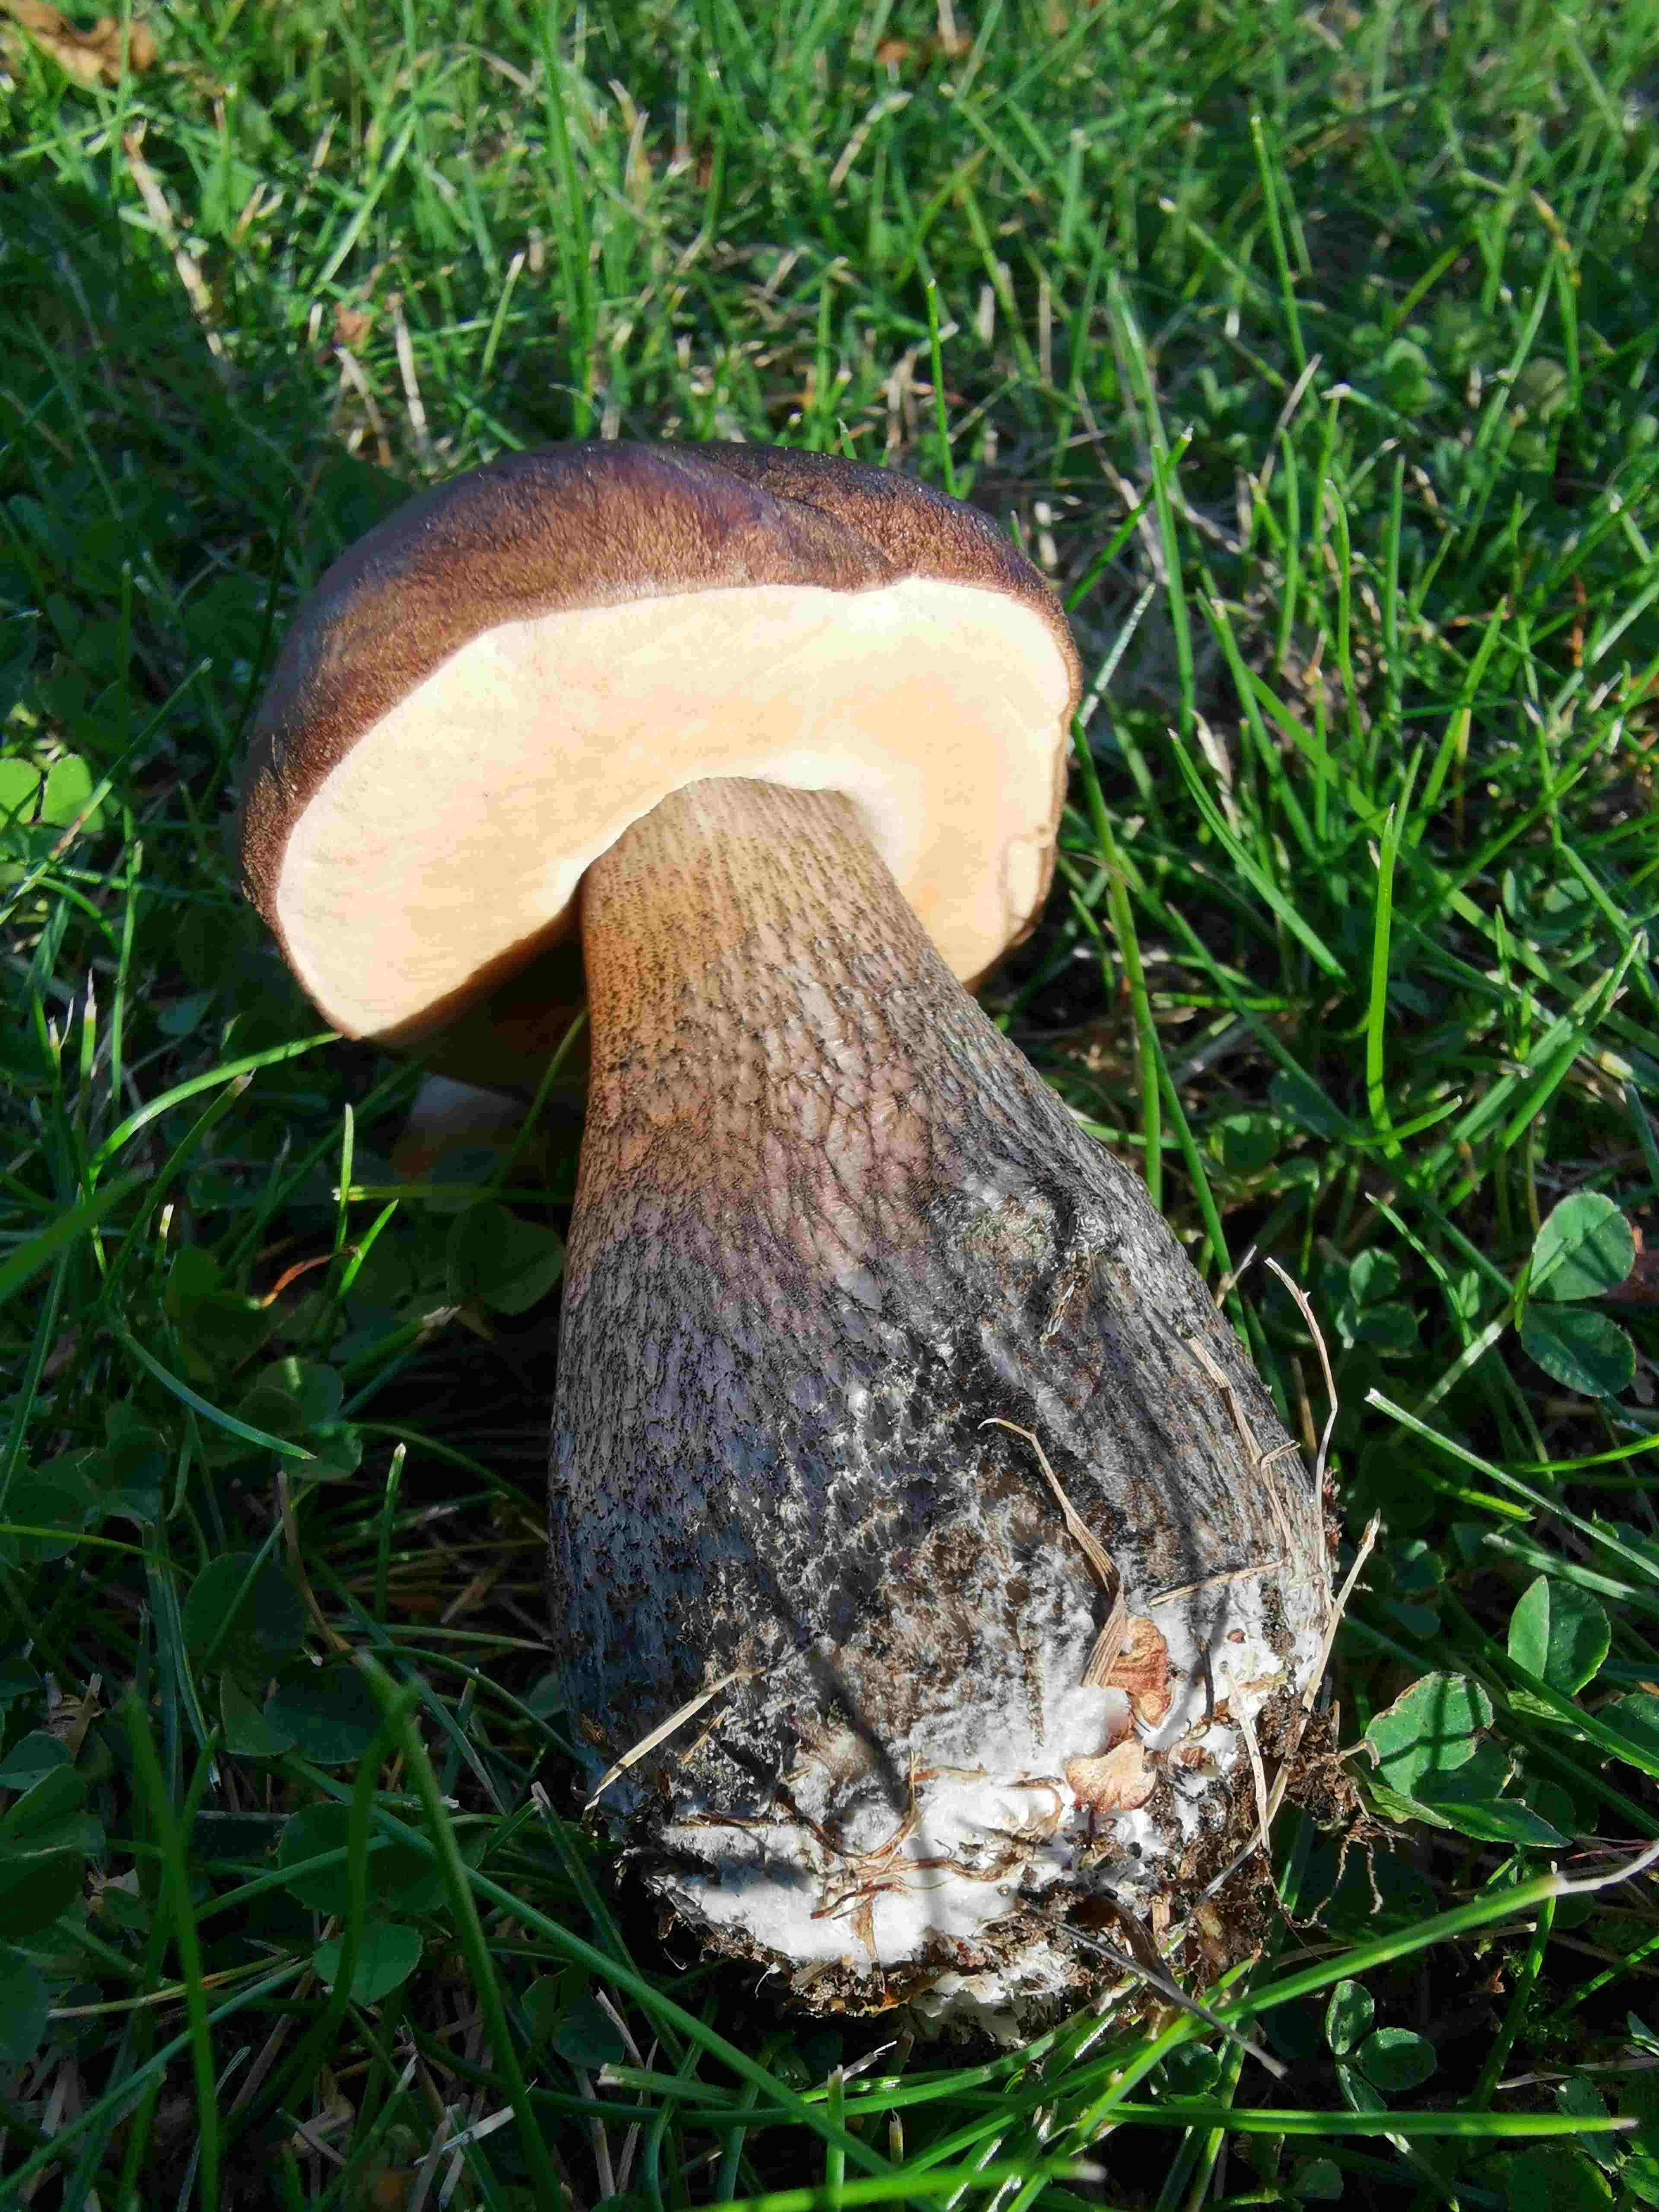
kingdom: Fungi
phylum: Basidiomycota
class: Agaricomycetes
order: Boletales
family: Boletaceae
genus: Leccinum
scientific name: Leccinum scabrum
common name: brun skælrørhat
